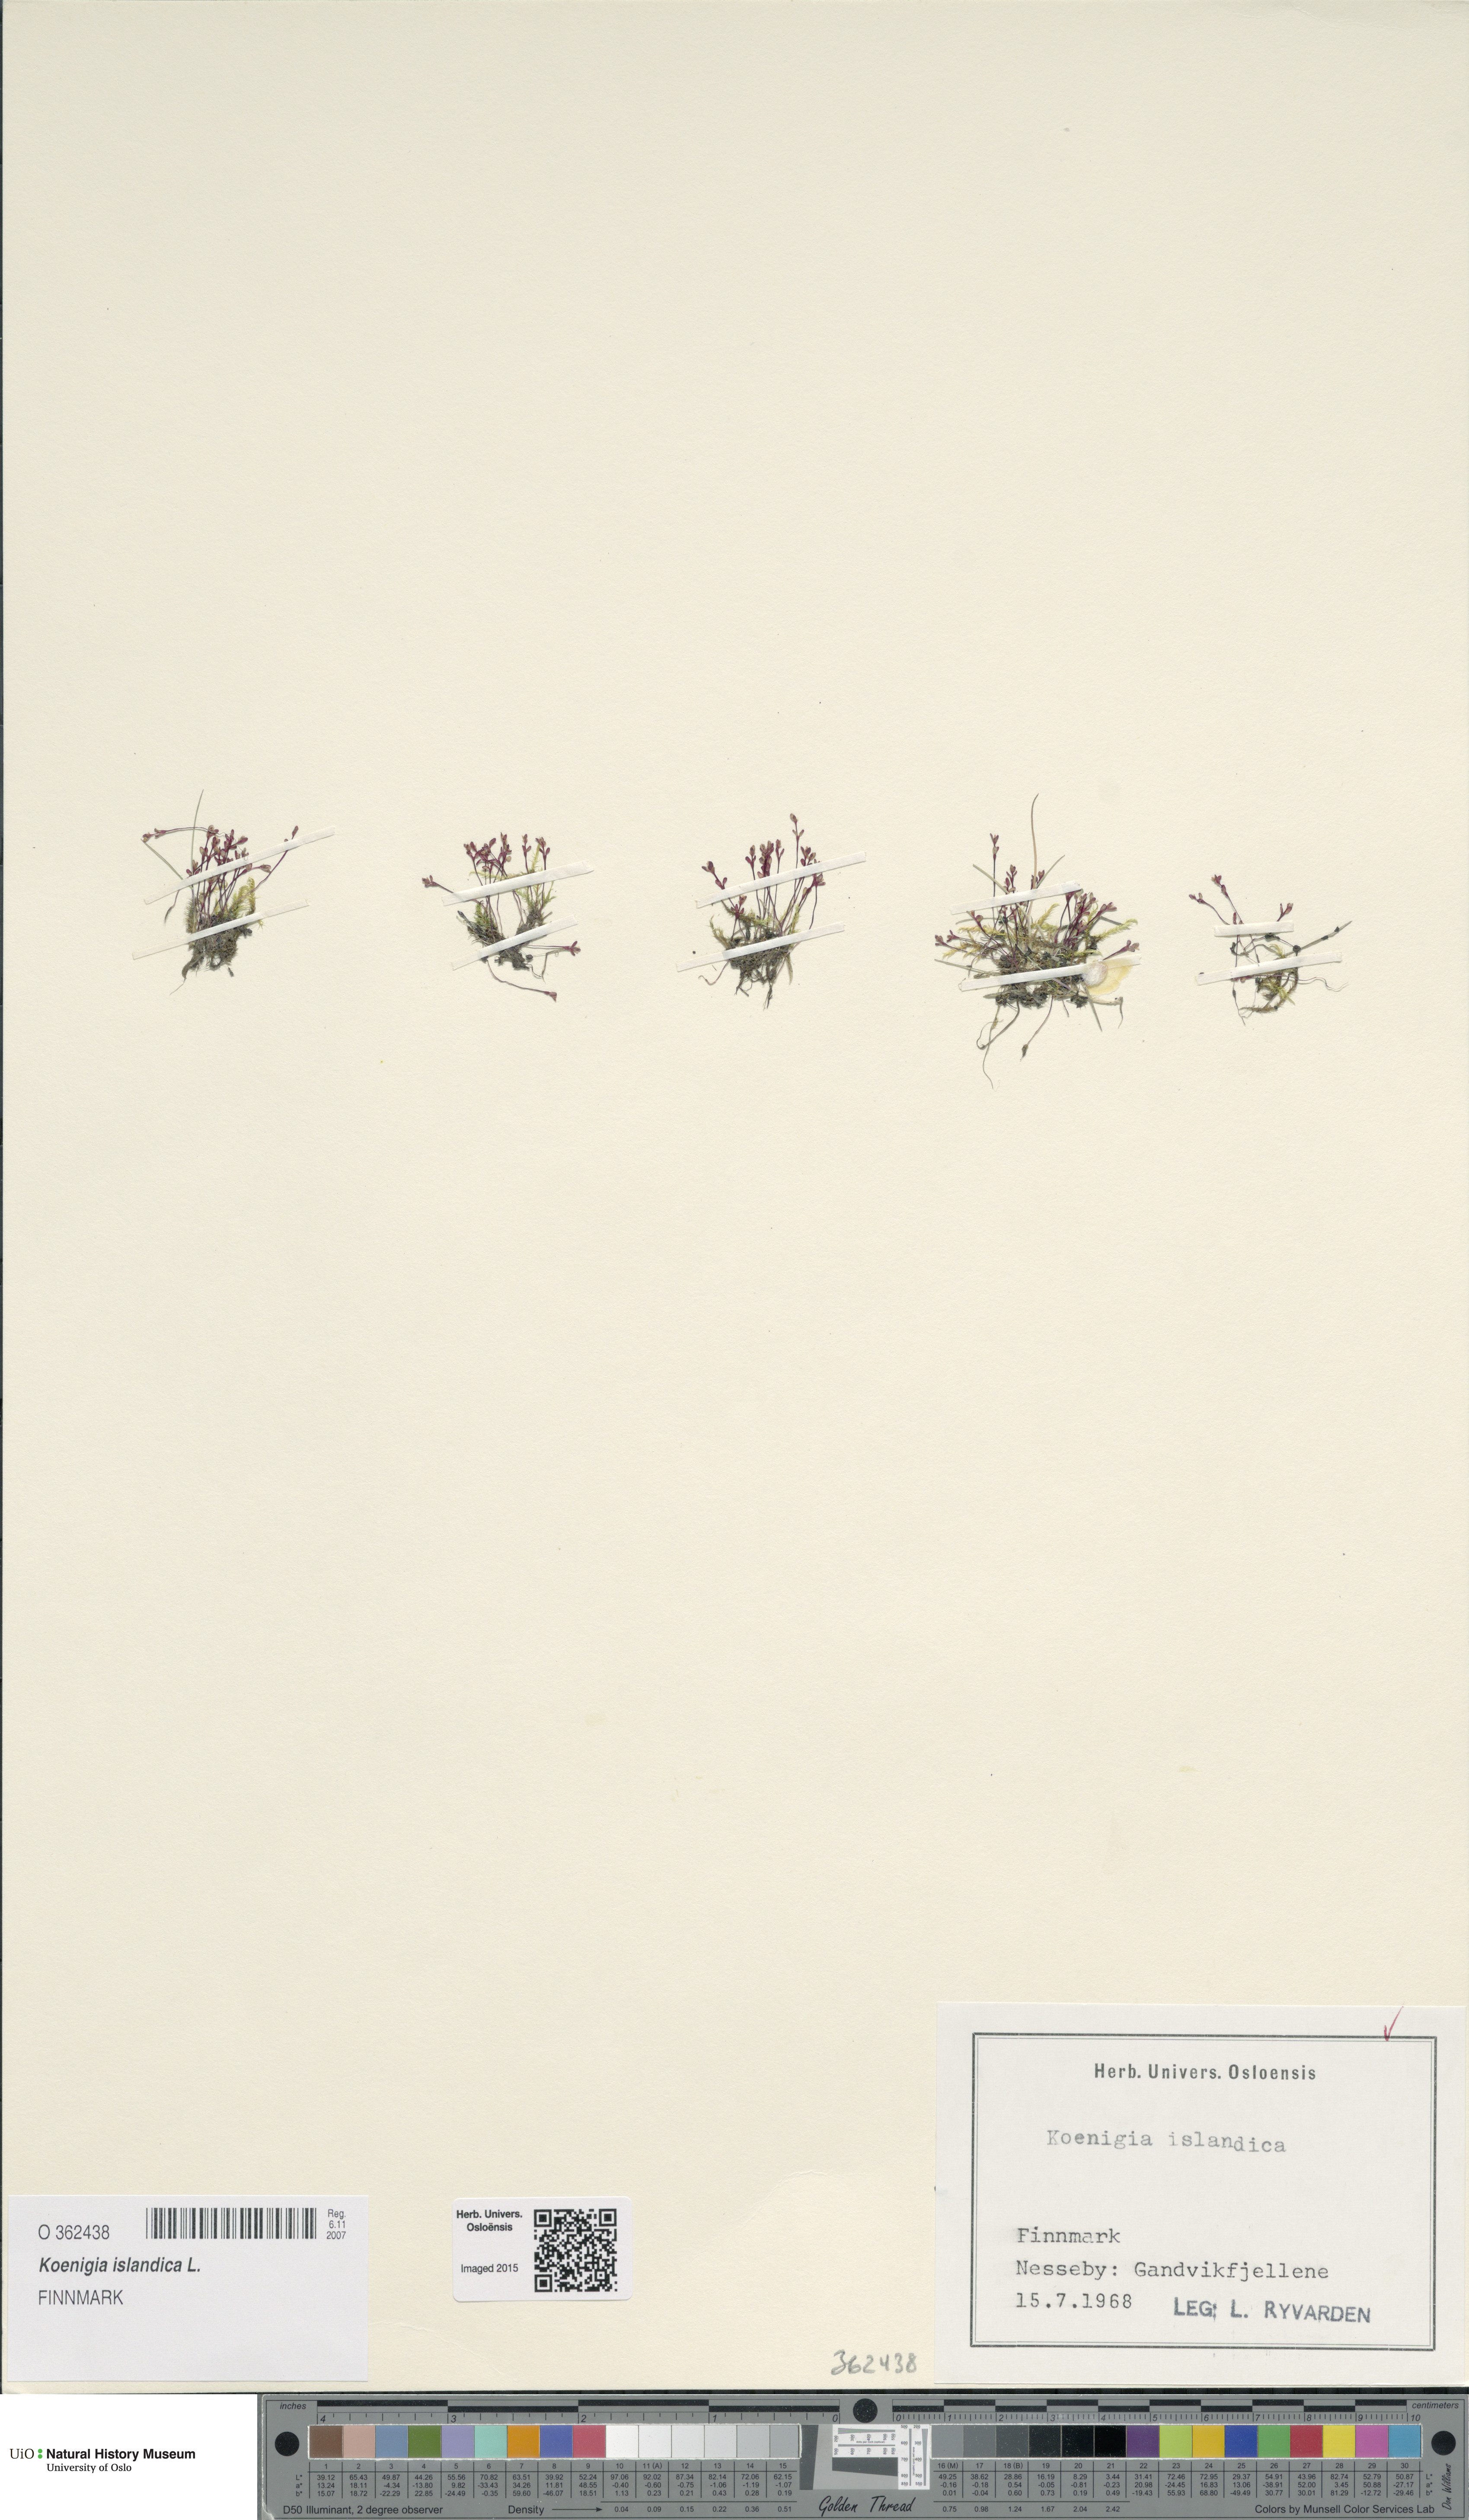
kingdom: Plantae
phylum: Tracheophyta
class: Magnoliopsida
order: Caryophyllales
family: Polygonaceae
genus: Koenigia
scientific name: Koenigia islandica
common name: Iceland-purslane
